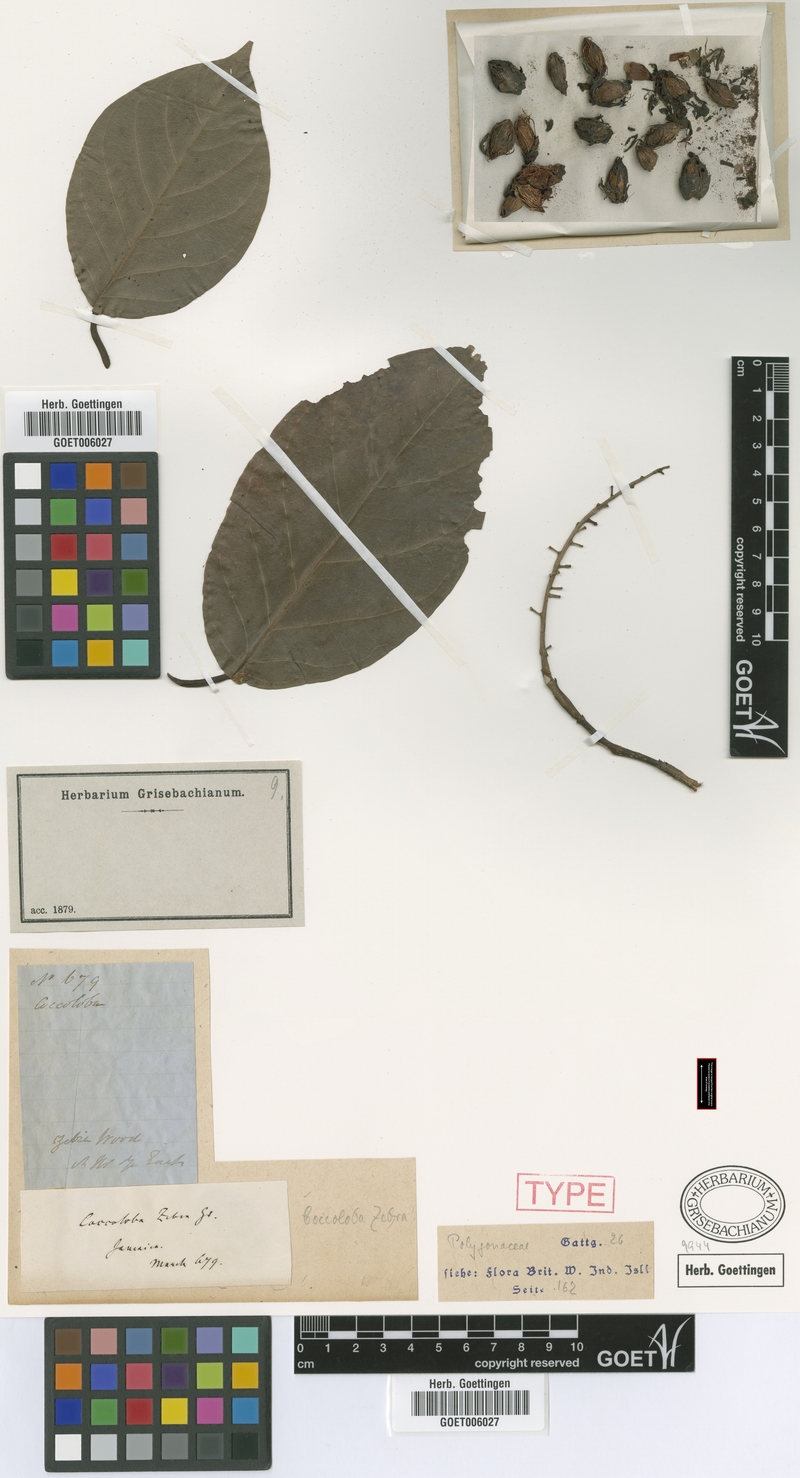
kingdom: Plantae
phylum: Tracheophyta
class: Magnoliopsida
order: Caryophyllales
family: Polygonaceae
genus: Coccoloba
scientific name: Coccoloba zebra
